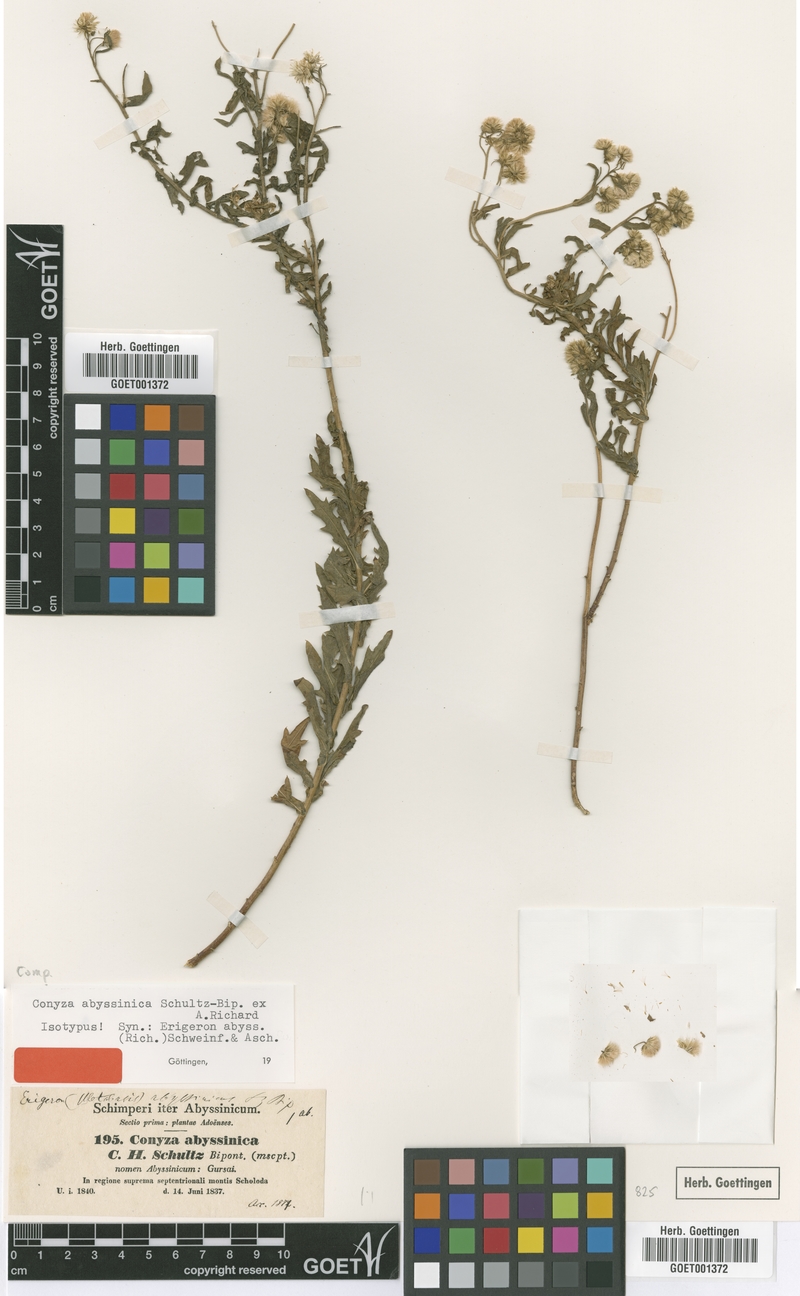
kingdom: Plantae
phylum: Tracheophyta
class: Magnoliopsida
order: Asterales
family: Asteraceae
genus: Conyza
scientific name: Conyza abyssinica
